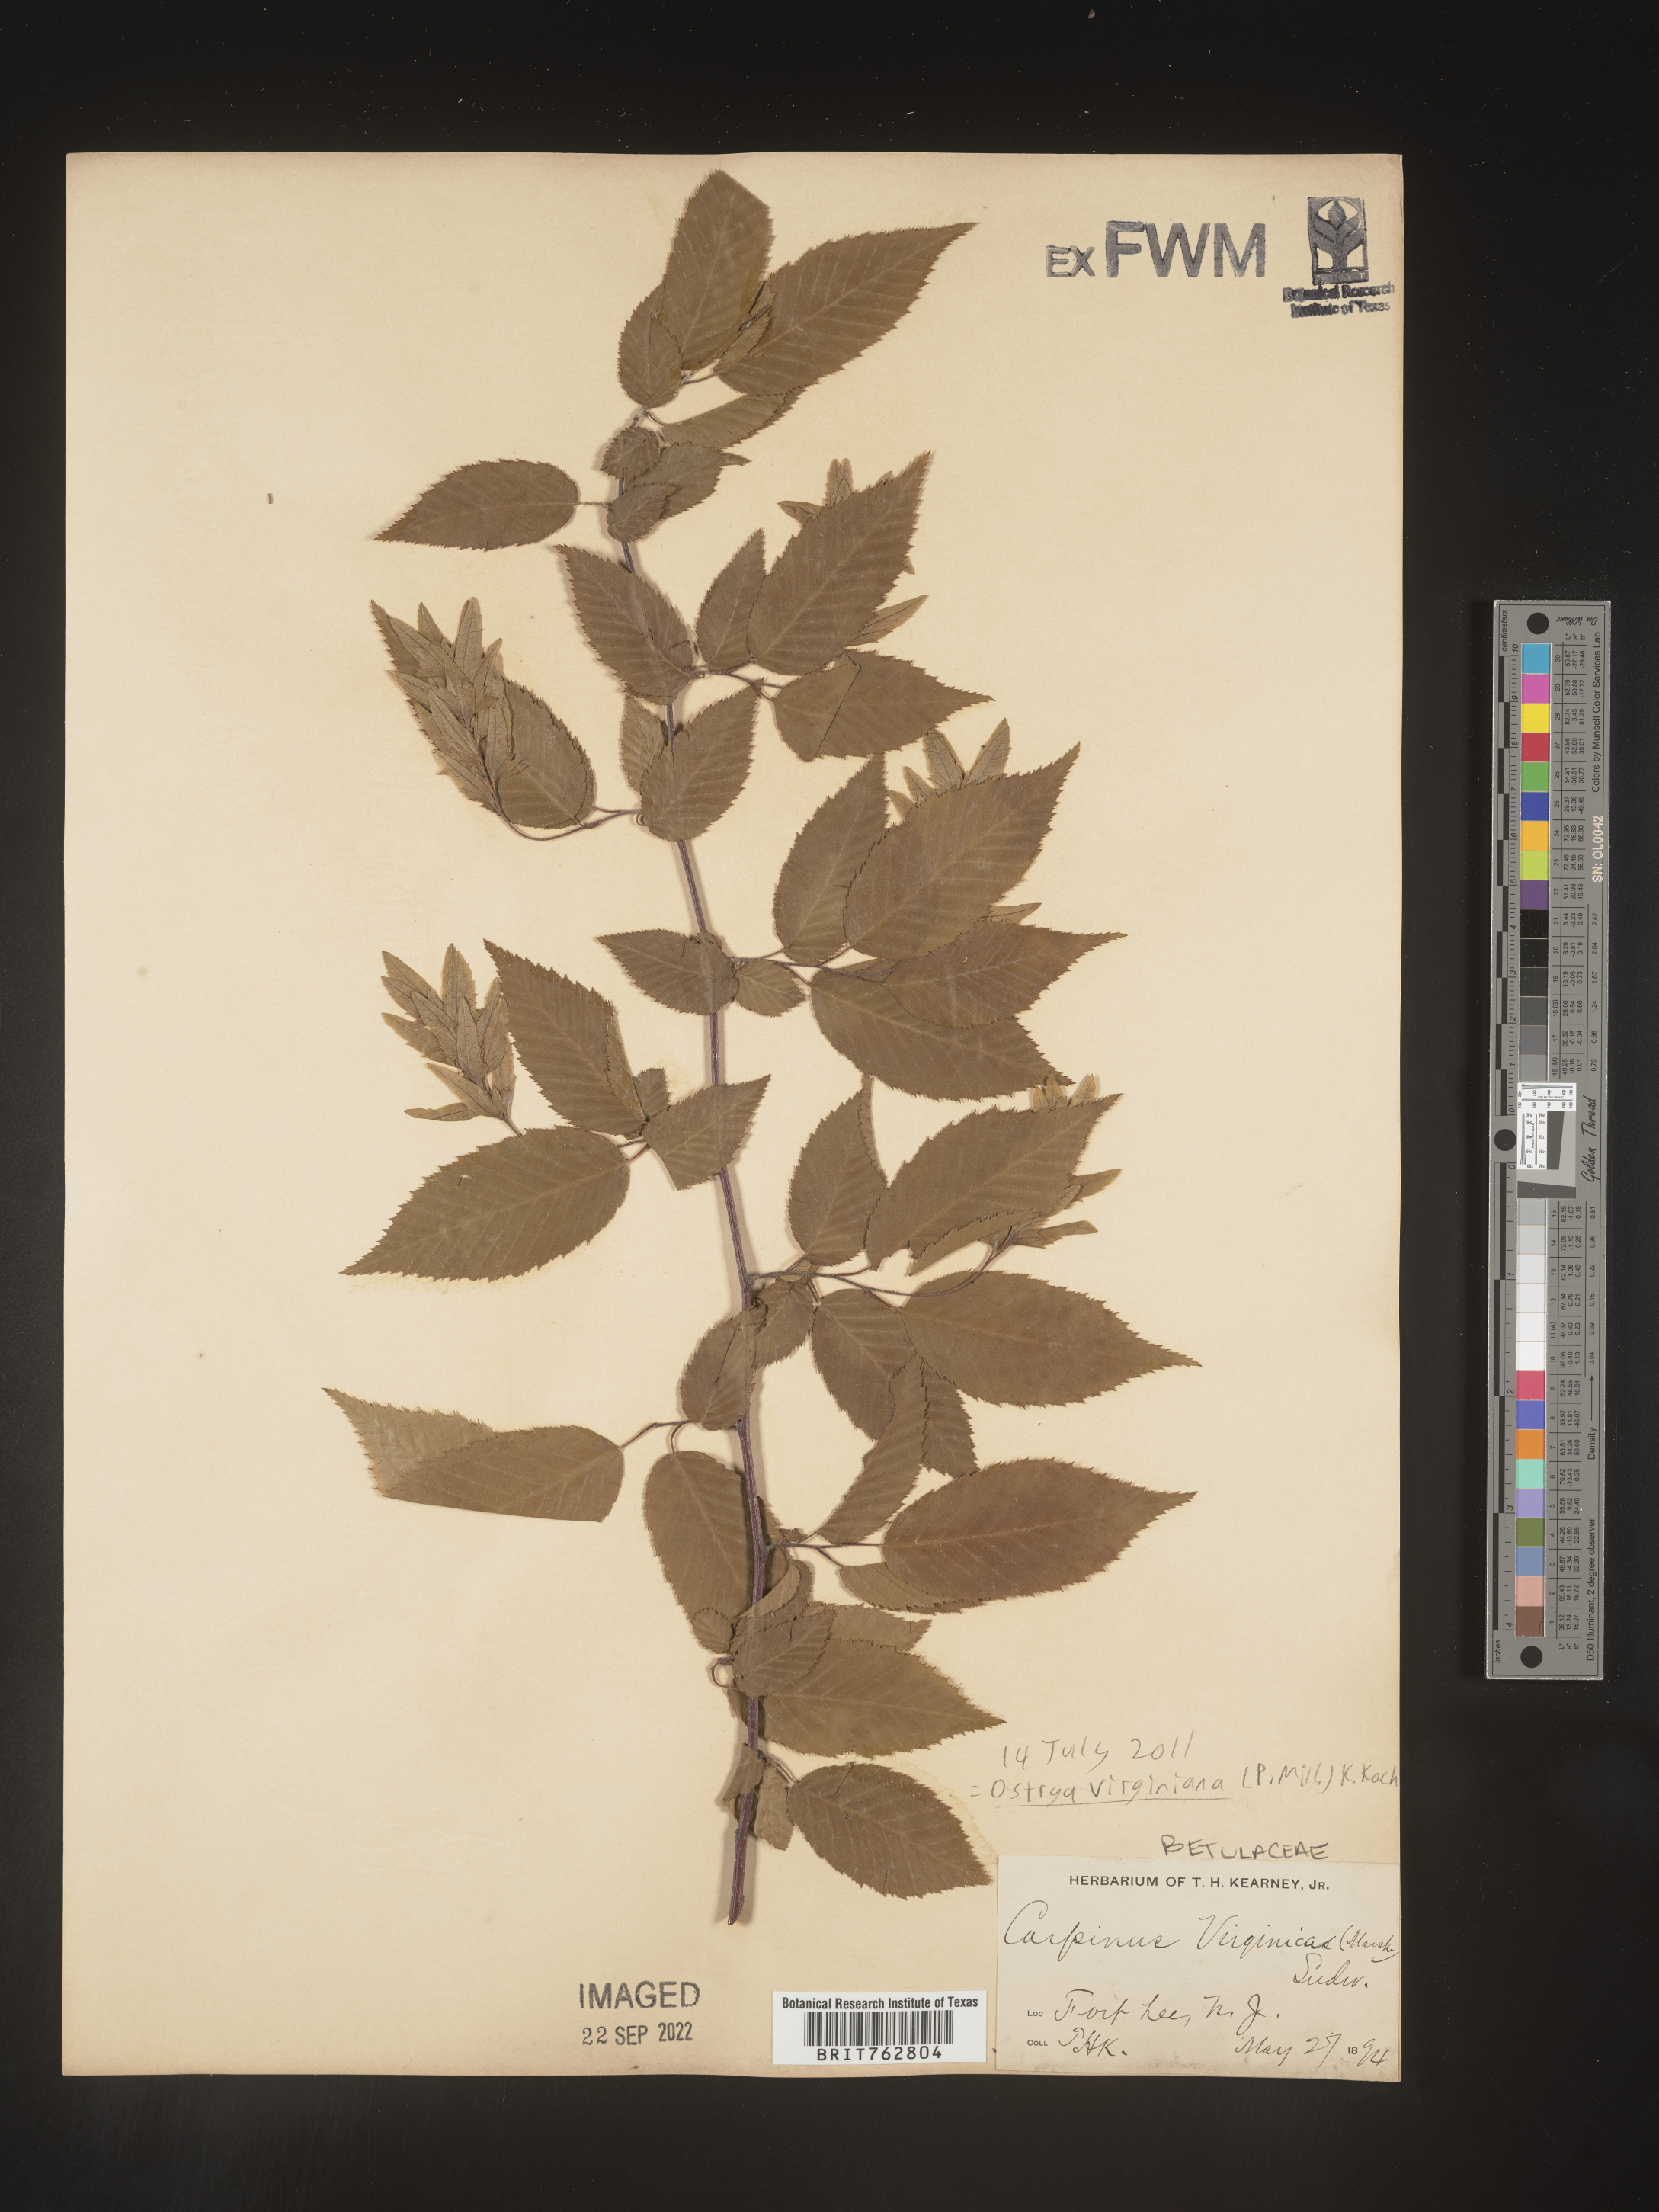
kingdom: Plantae
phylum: Tracheophyta
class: Magnoliopsida
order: Fagales
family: Betulaceae
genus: Ostrya
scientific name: Ostrya virginiana
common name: Ironwood
